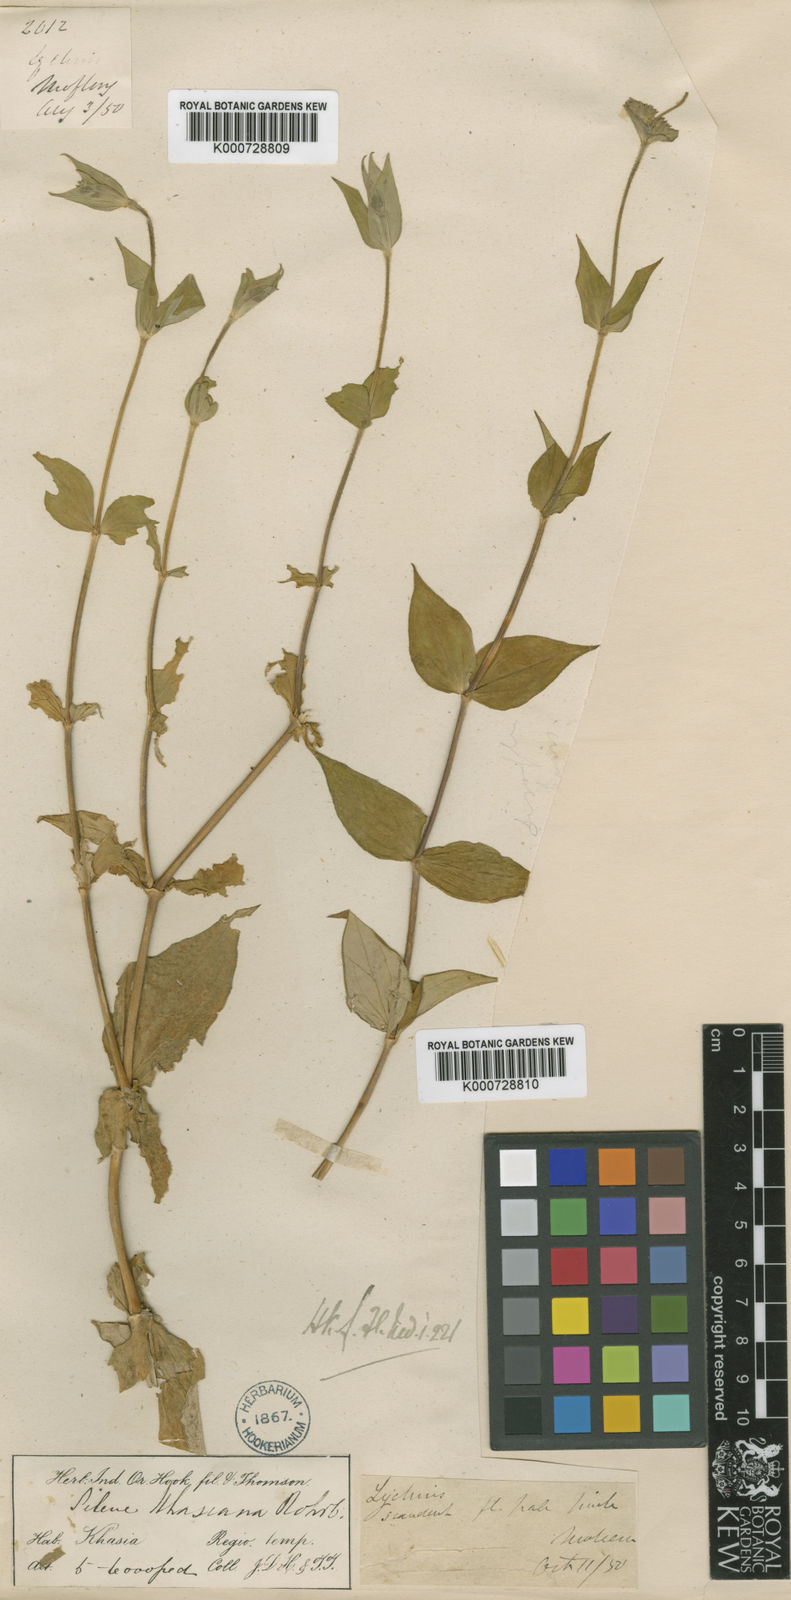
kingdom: Plantae
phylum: Tracheophyta
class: Magnoliopsida
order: Caryophyllales
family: Caryophyllaceae
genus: Silene
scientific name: Silene khasiana
